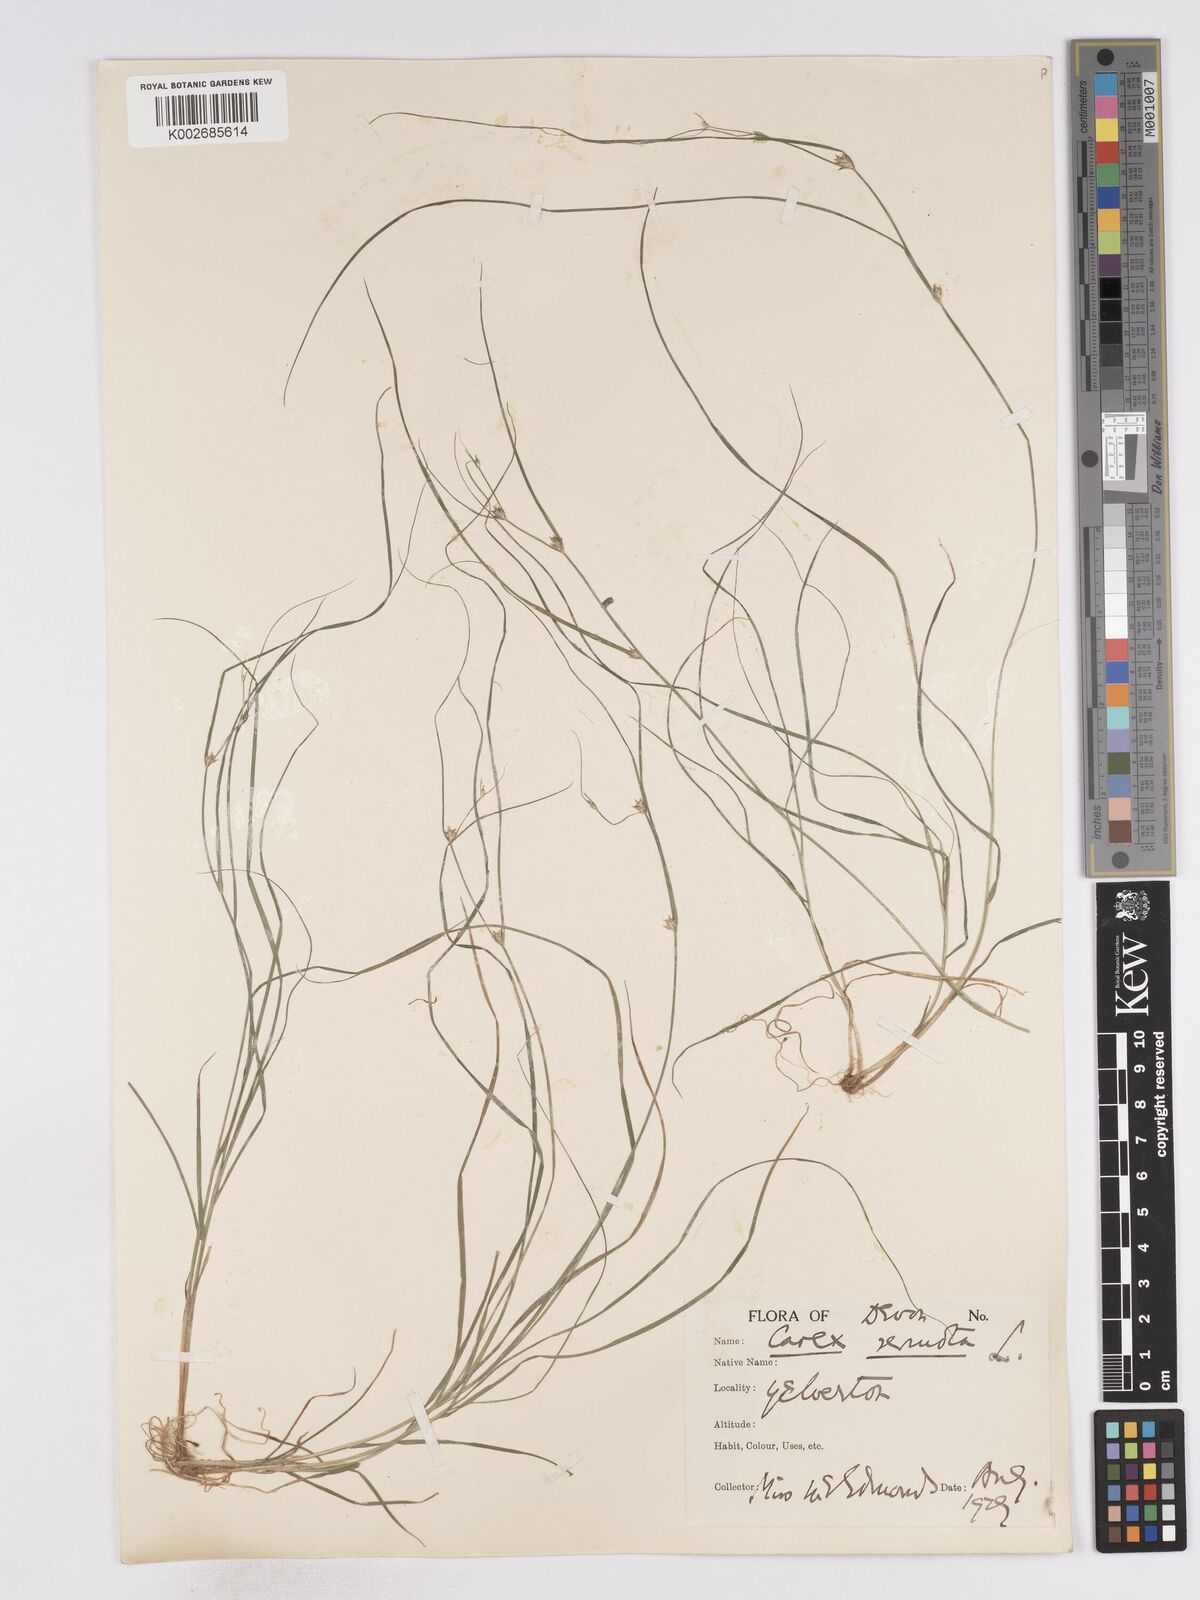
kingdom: Plantae
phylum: Tracheophyta
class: Liliopsida
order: Poales
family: Cyperaceae
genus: Carex
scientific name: Carex remota
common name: Remote sedge
